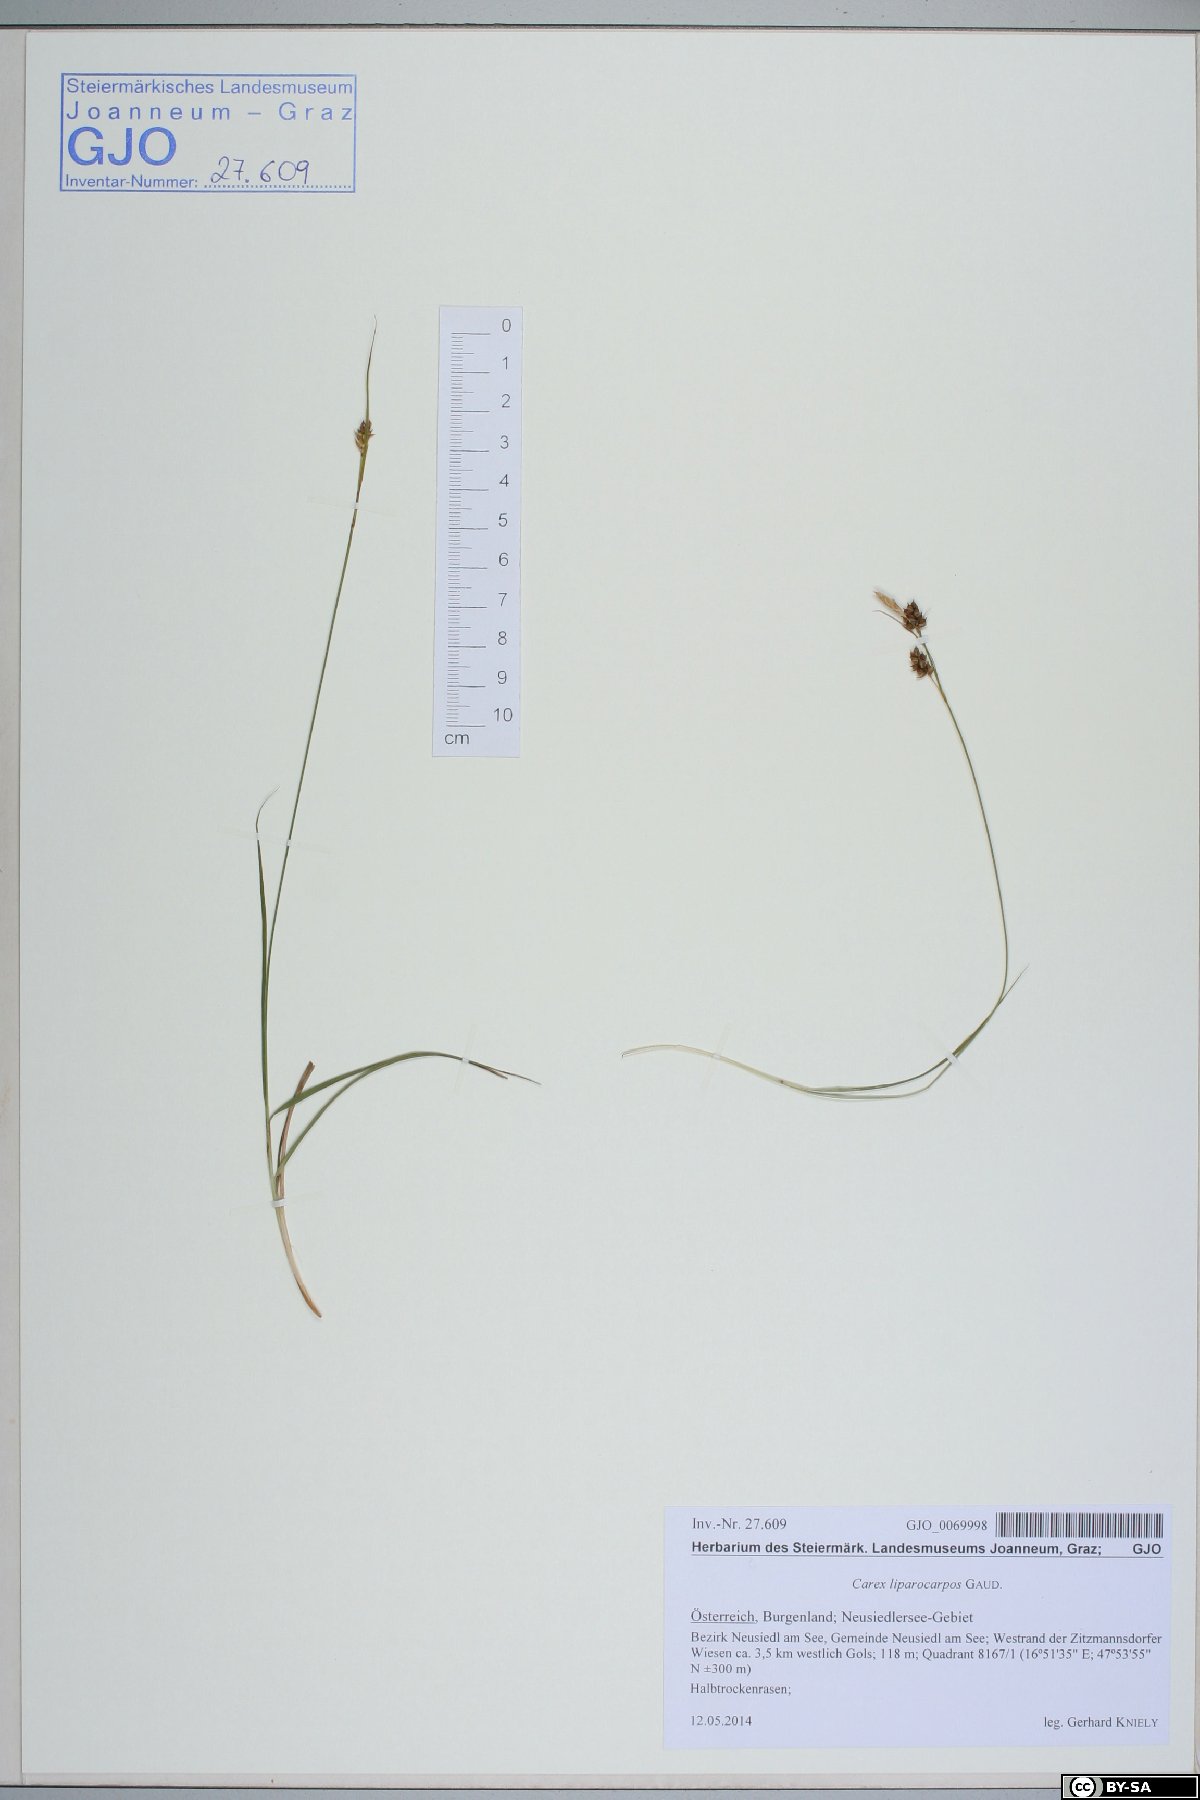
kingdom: Plantae
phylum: Tracheophyta
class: Liliopsida
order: Poales
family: Cyperaceae
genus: Carex
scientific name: Carex liparocarpos
